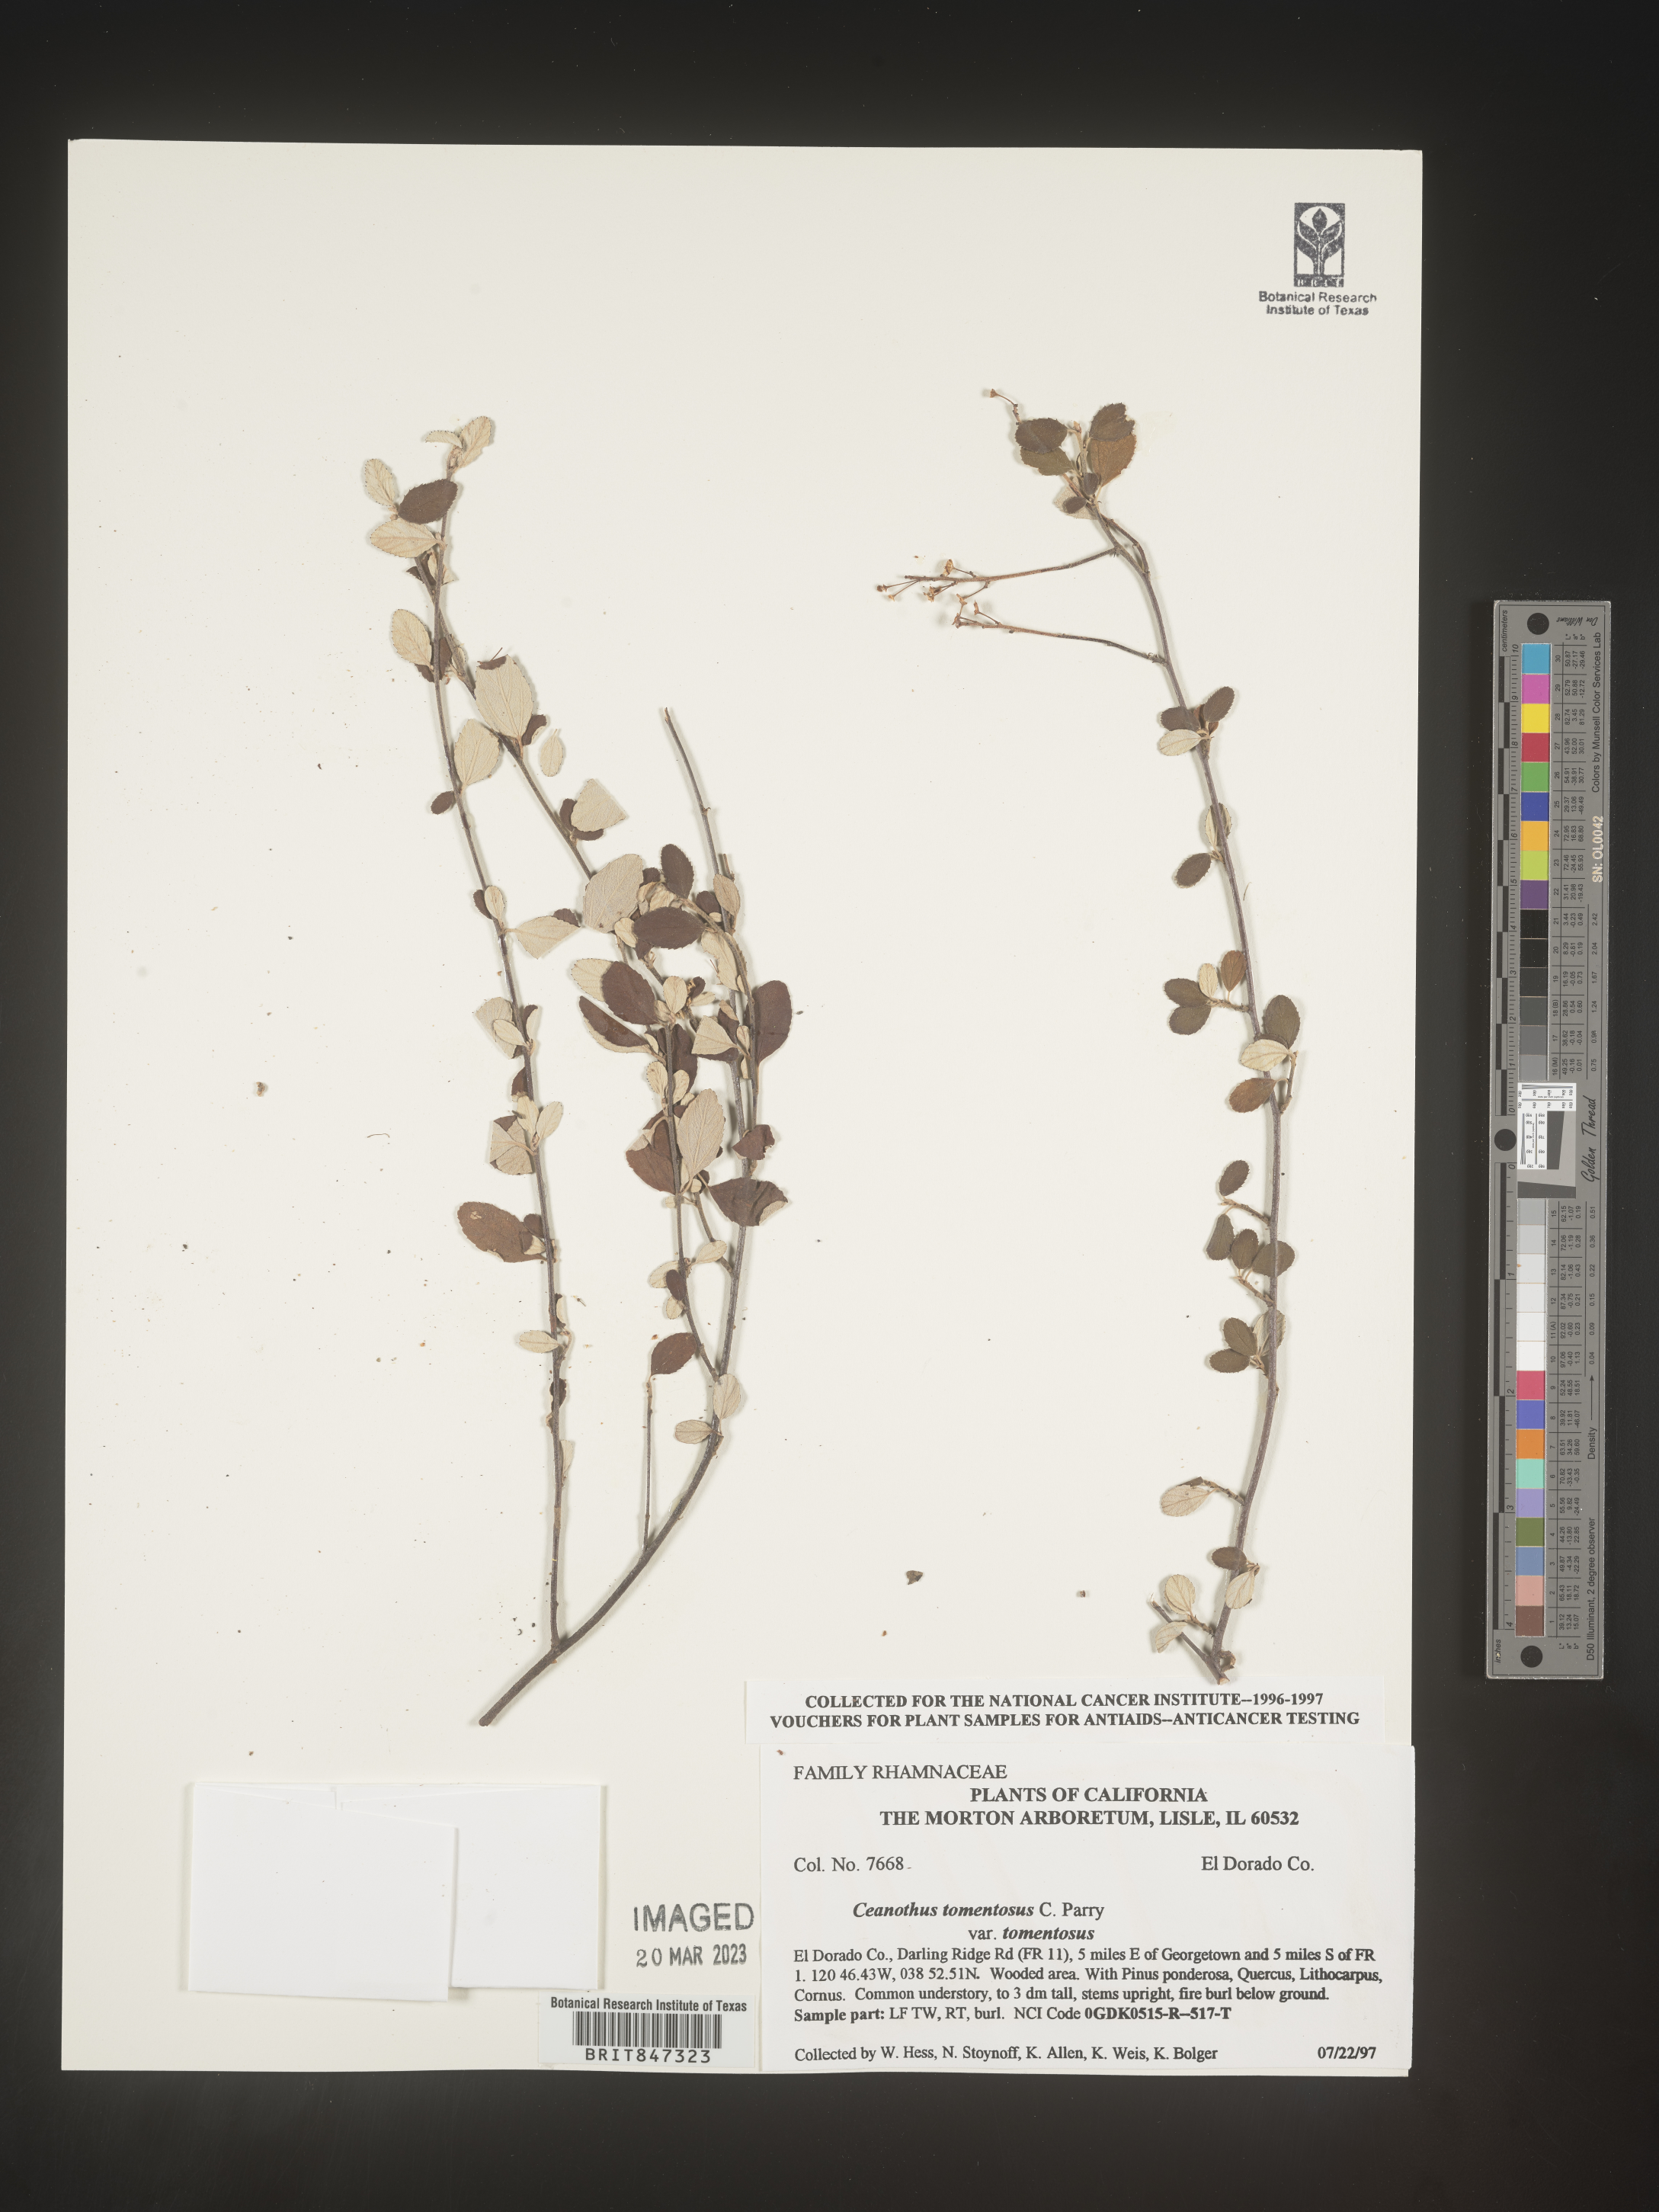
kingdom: Plantae
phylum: Tracheophyta
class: Magnoliopsida
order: Rosales
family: Rhamnaceae
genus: Ceanothus
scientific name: Ceanothus
